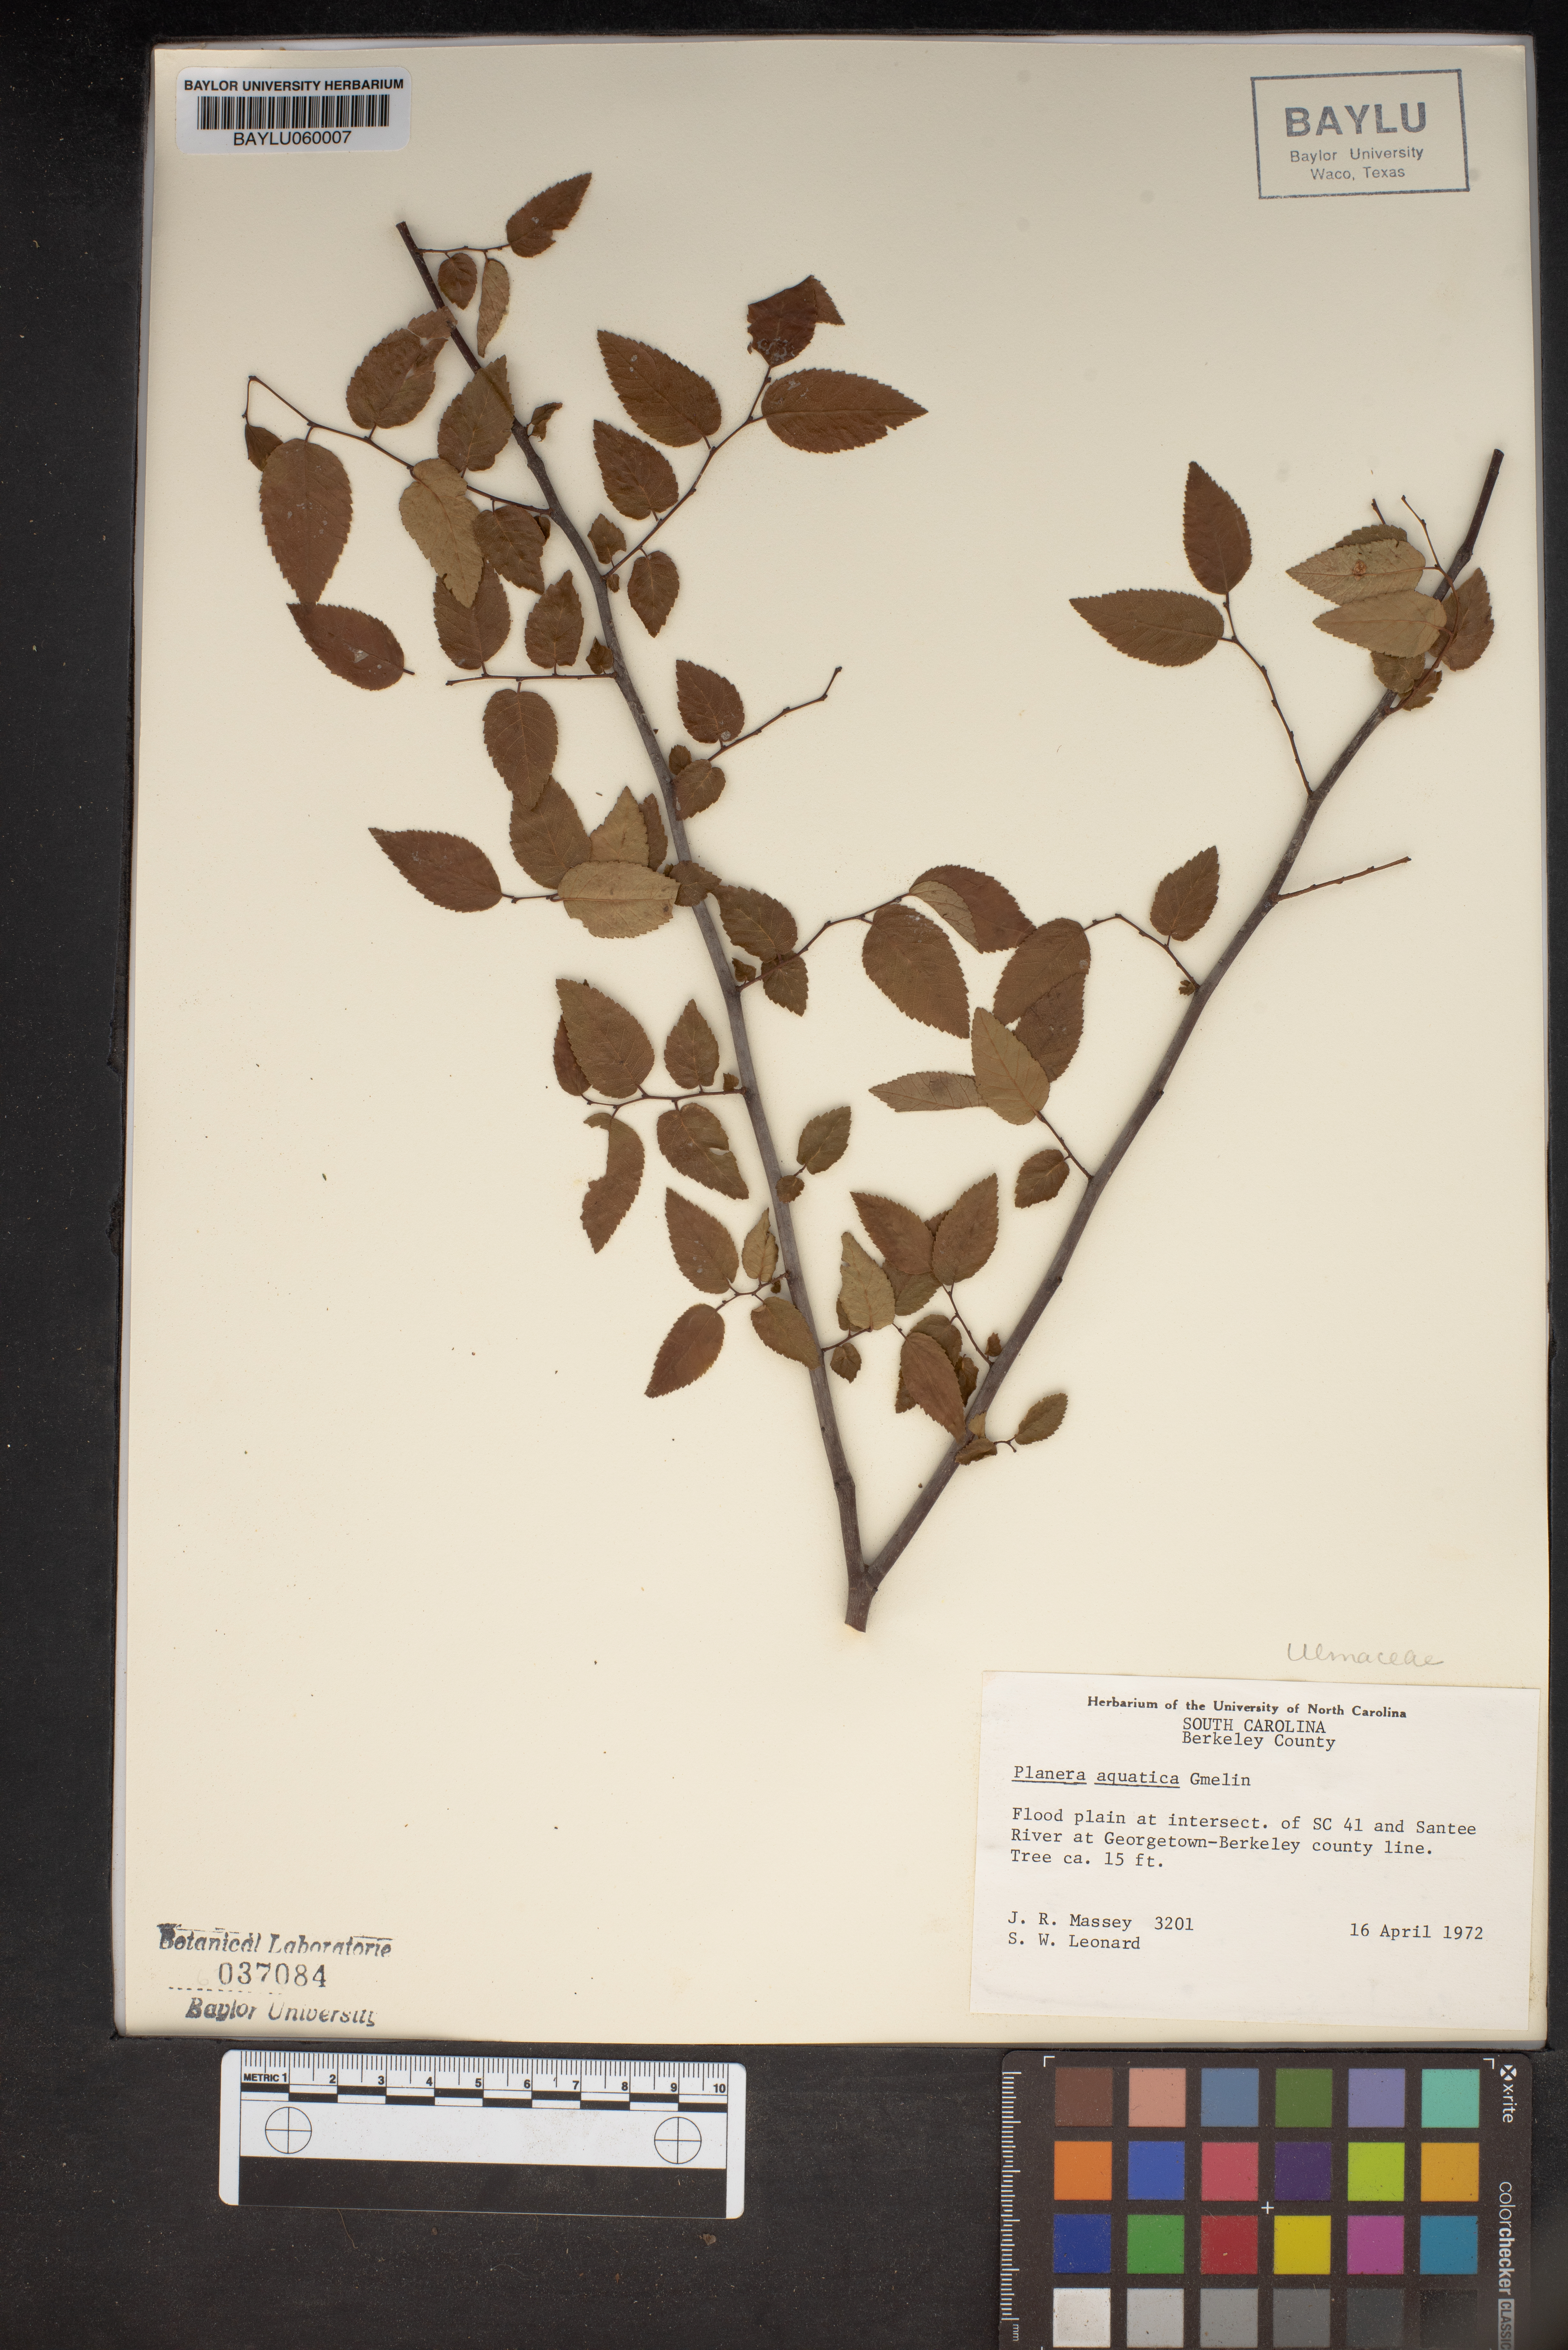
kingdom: Plantae
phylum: Tracheophyta
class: Magnoliopsida
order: Rosales
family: Ulmaceae
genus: Planera
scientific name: Planera aquatica
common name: Water-elm
